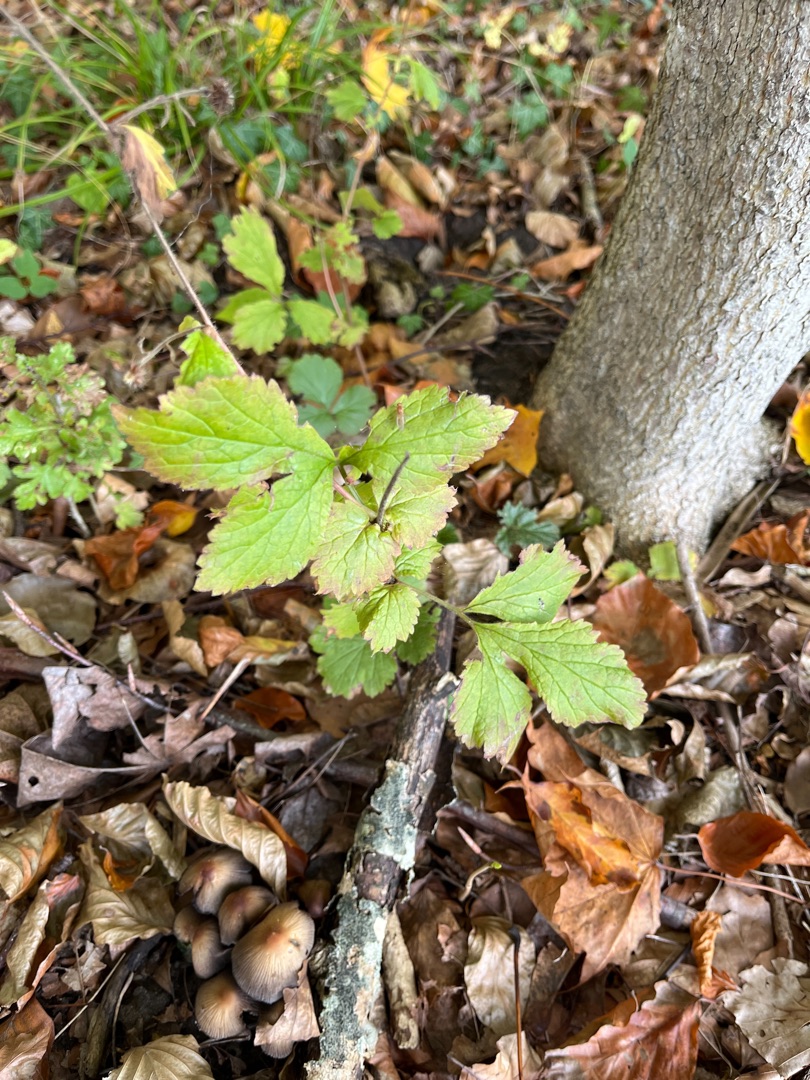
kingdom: Plantae
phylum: Tracheophyta
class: Magnoliopsida
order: Rosales
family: Rosaceae
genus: Geum
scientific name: Geum urbanum
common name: Feber-nellikerod
